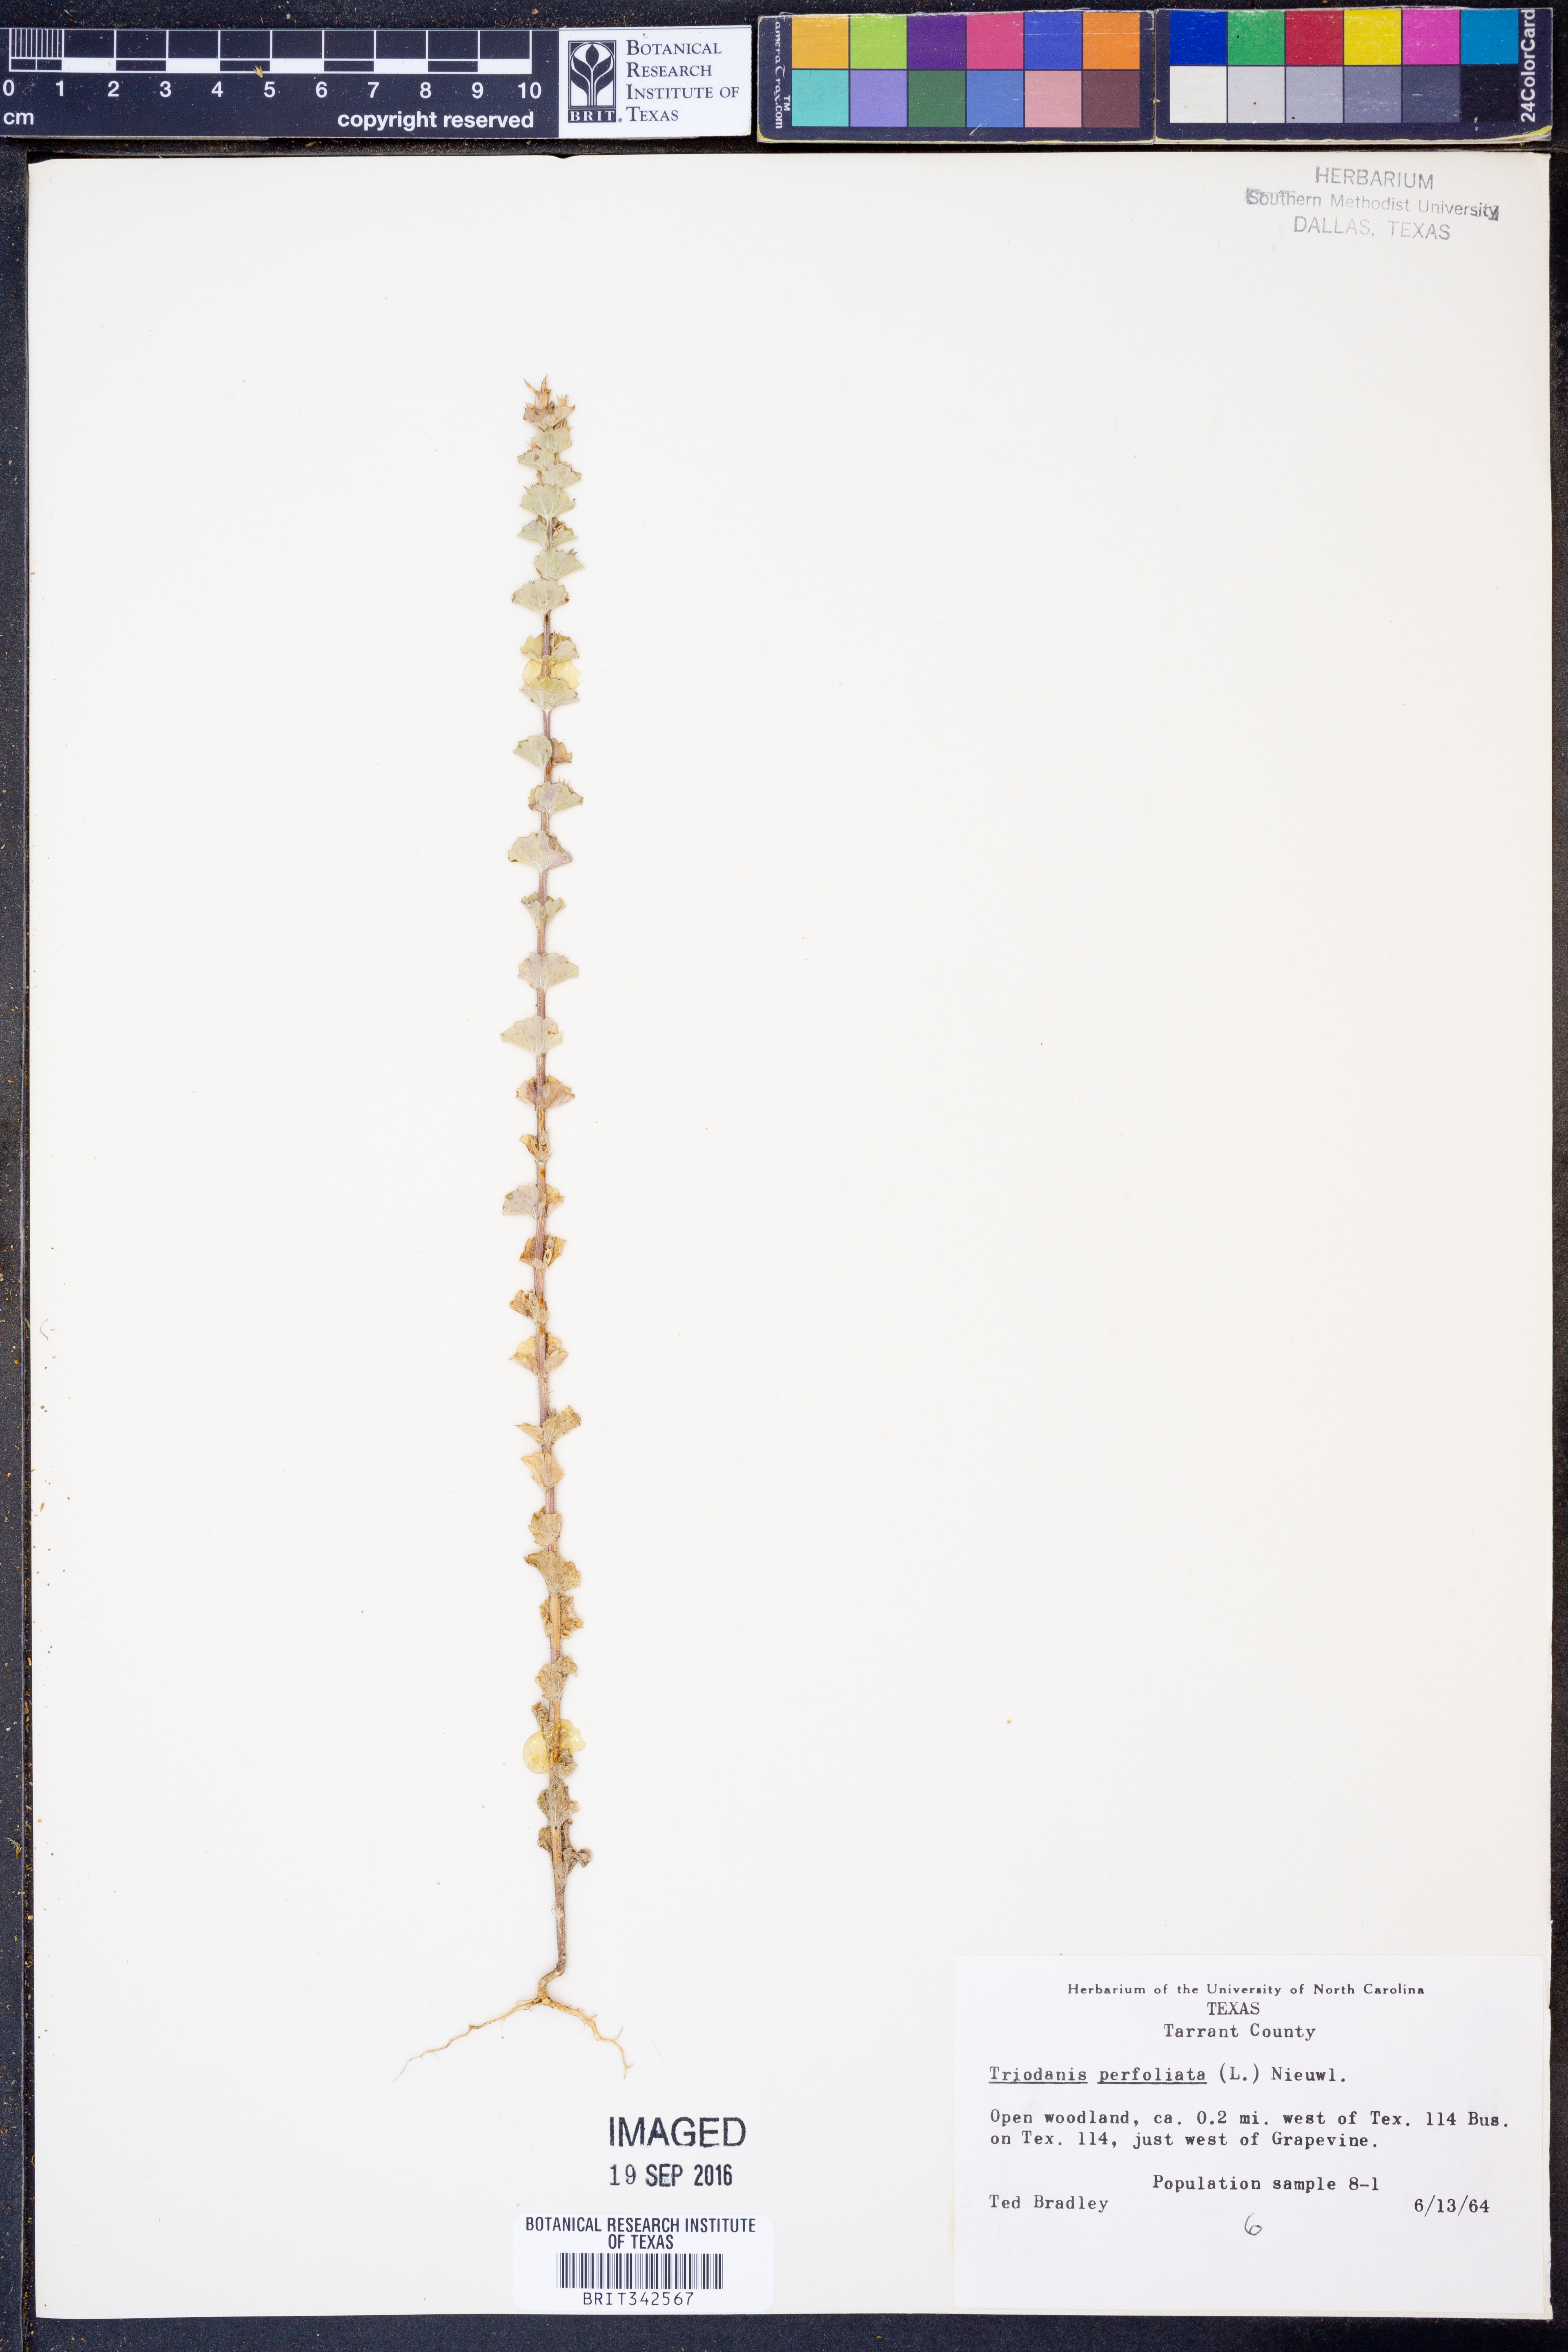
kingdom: Plantae
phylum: Tracheophyta
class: Magnoliopsida
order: Asterales
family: Campanulaceae
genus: Triodanis
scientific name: Triodanis perfoliata
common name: Clasping venus' looking-glass
